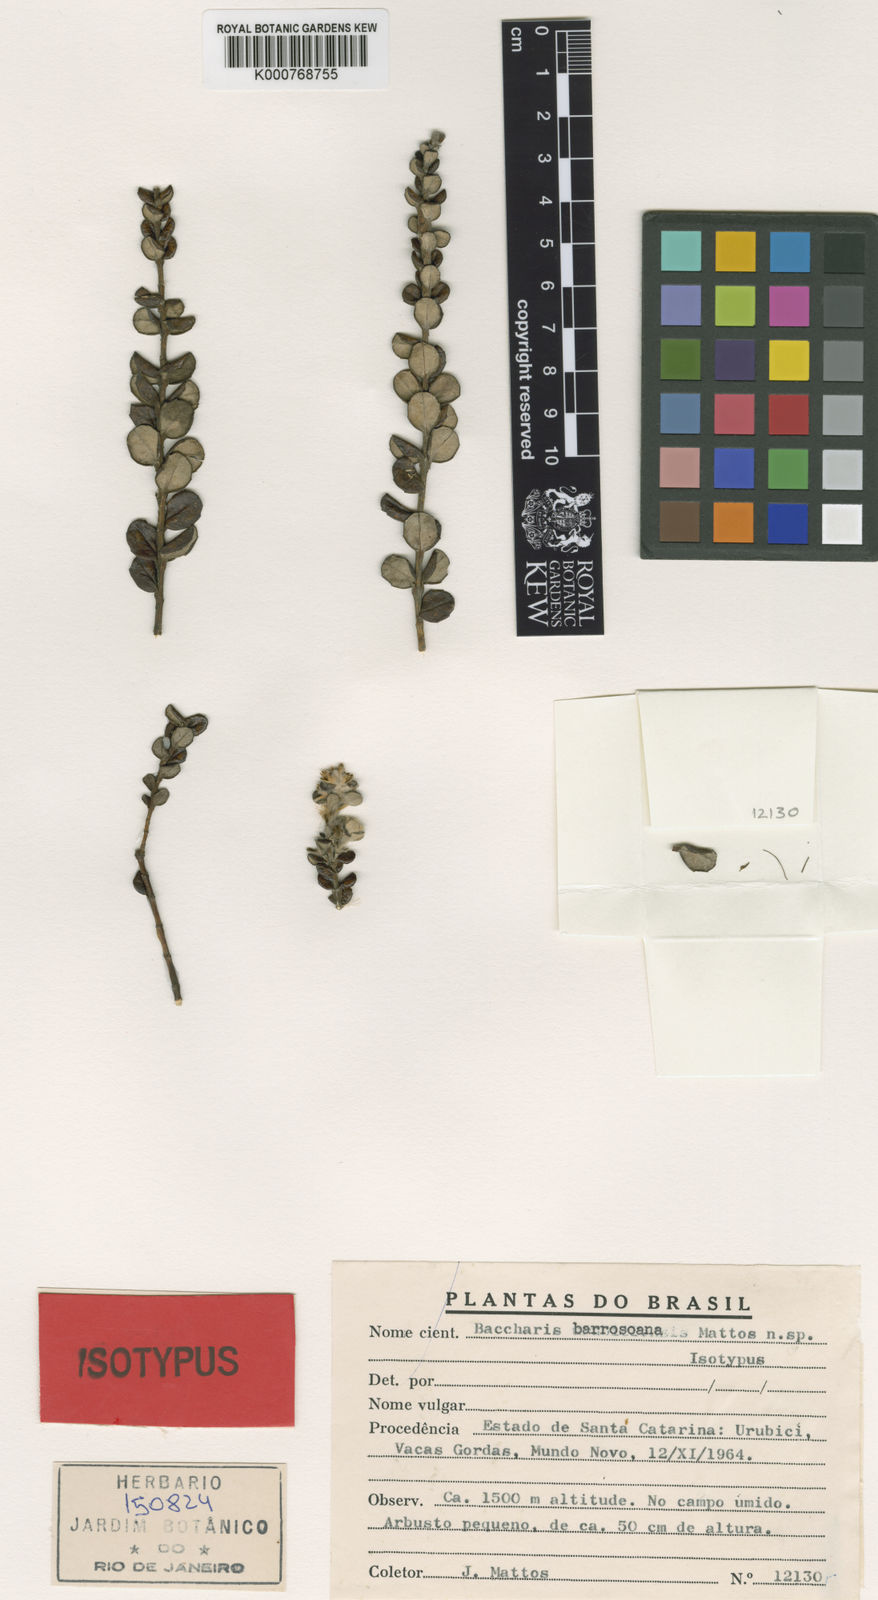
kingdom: Plantae
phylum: Tracheophyta
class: Magnoliopsida
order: Asterales
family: Asteraceae
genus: Baccharis
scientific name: Baccharis nummularia
